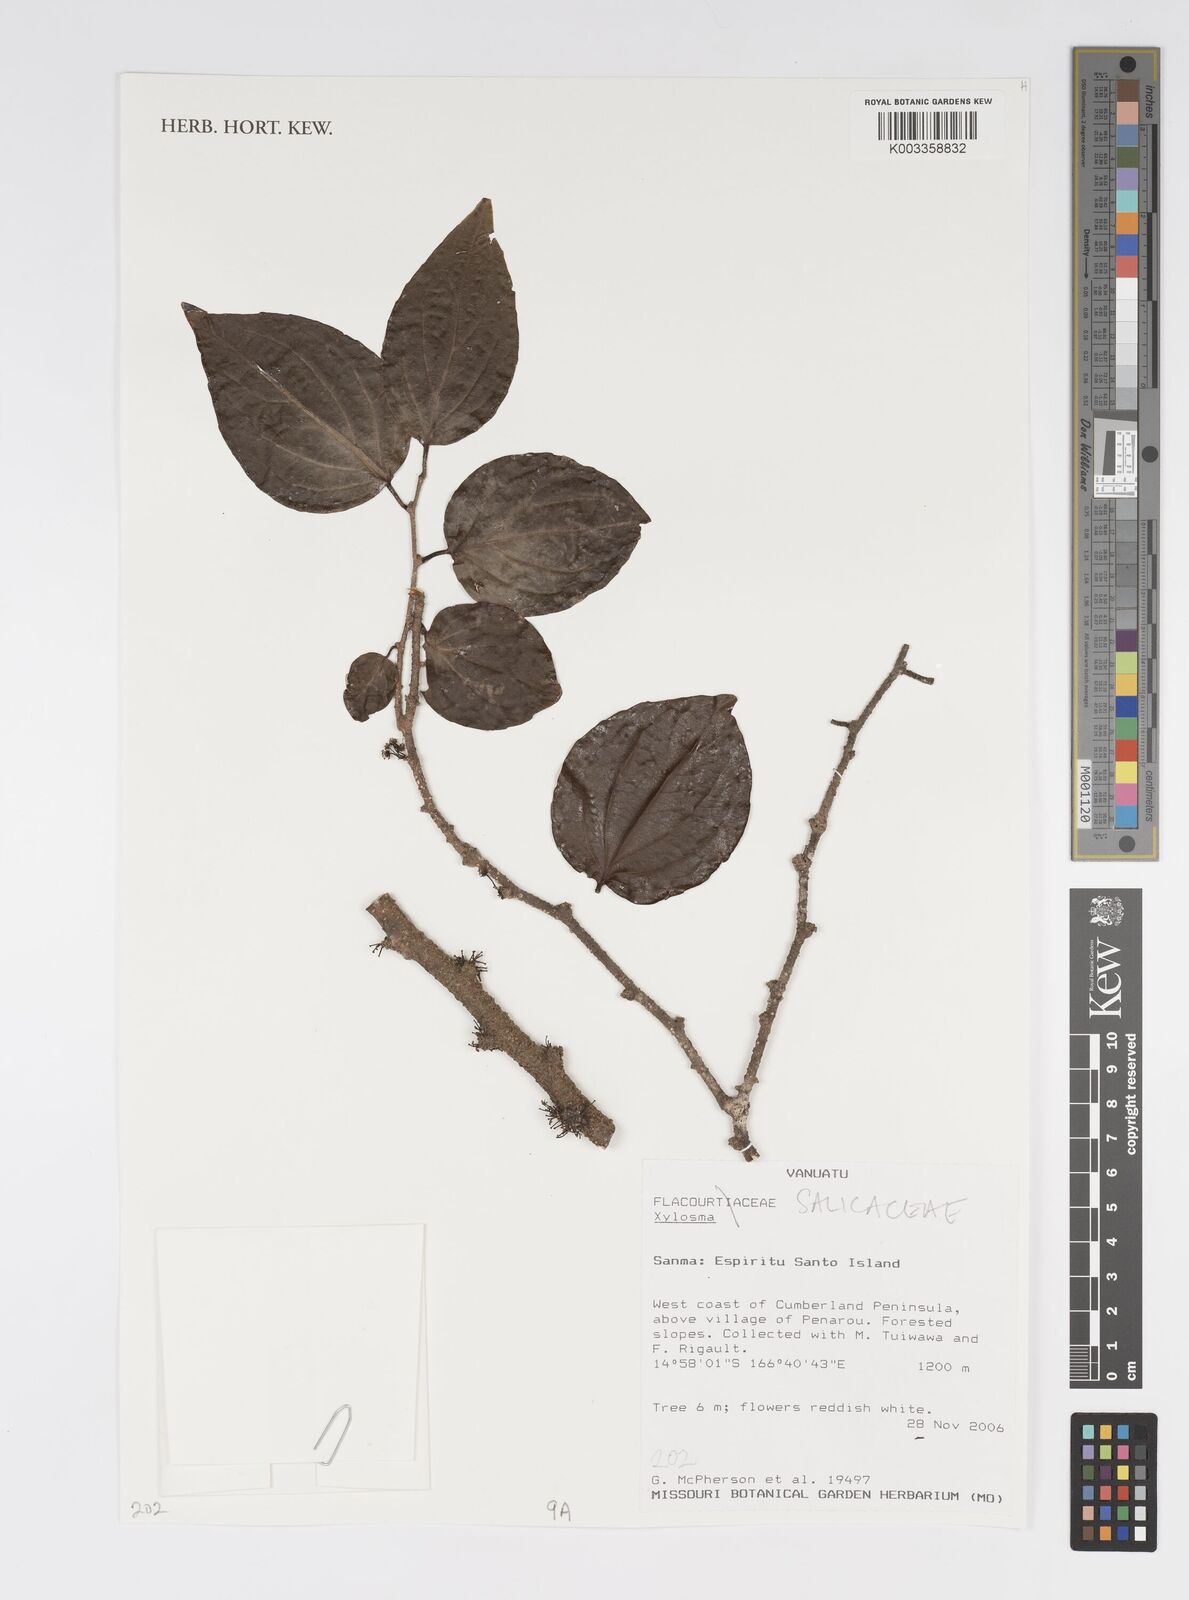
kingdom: Plantae
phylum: Tracheophyta
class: Magnoliopsida
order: Malpighiales
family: Salicaceae
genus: Xylosma
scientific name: Xylosma
